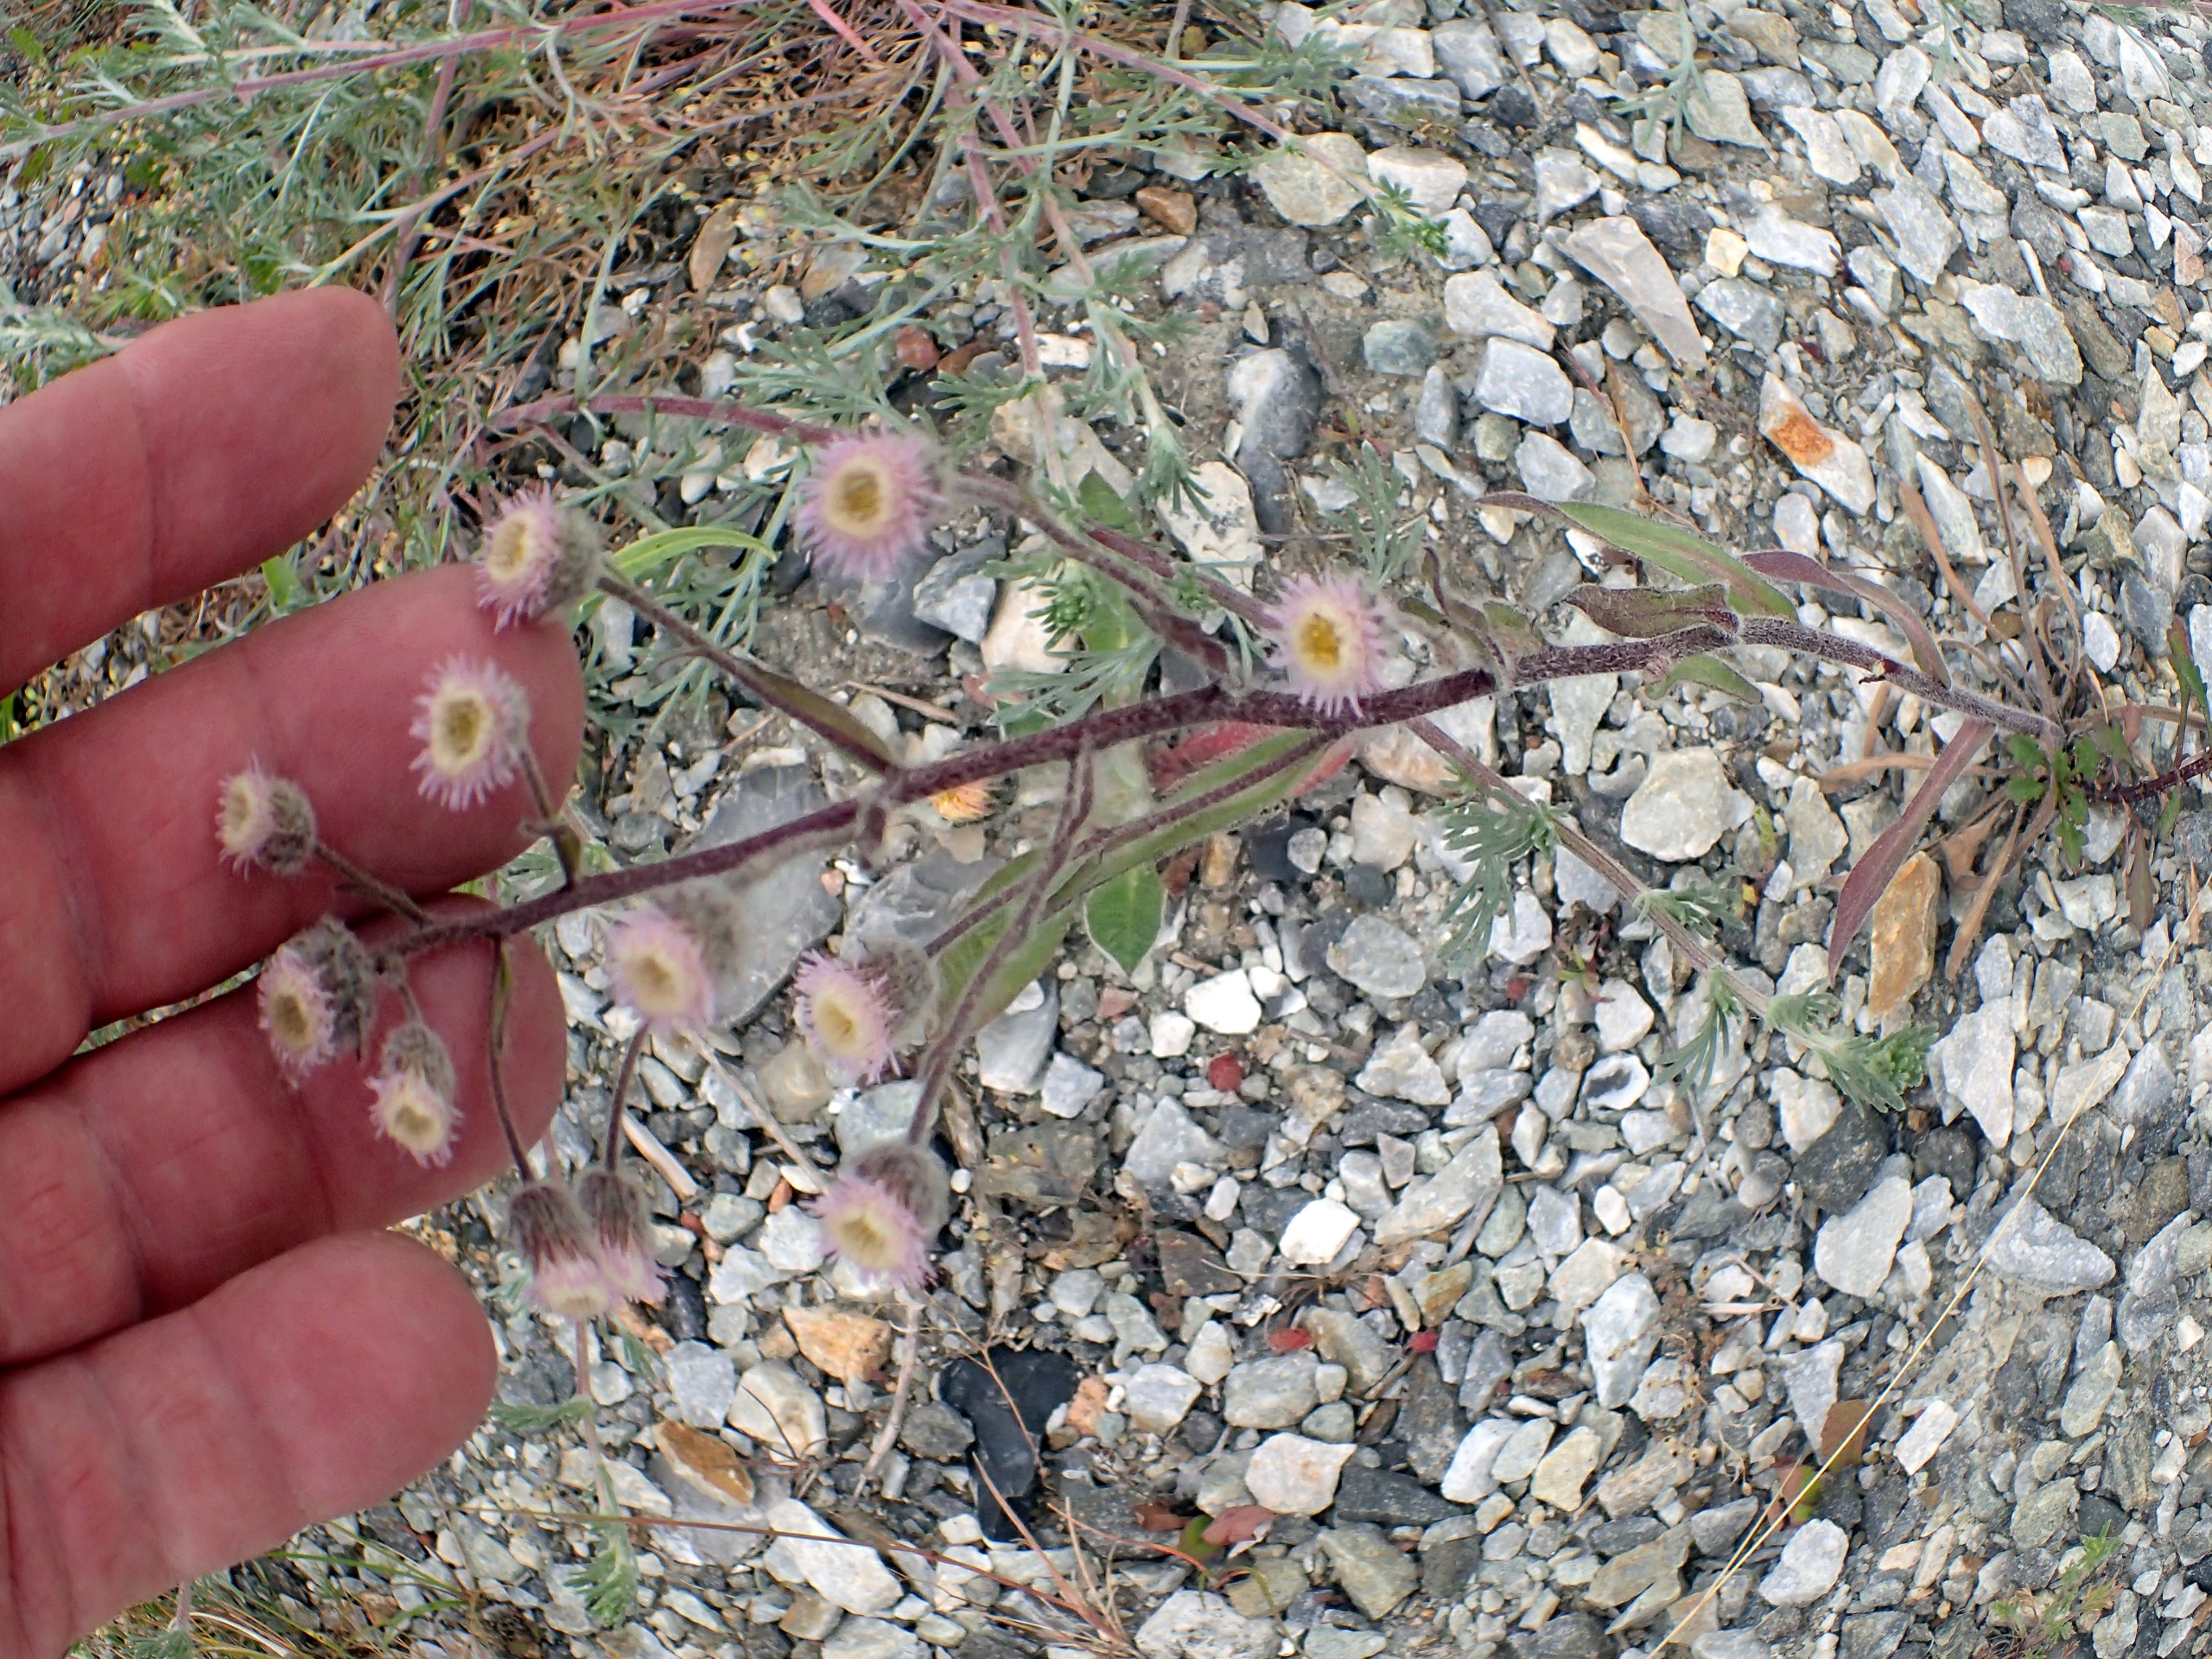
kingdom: Plantae
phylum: Tracheophyta
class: Magnoliopsida
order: Asterales
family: Asteraceae
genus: Erigeron
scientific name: Erigeron acris
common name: Bitter bakkestjerne
